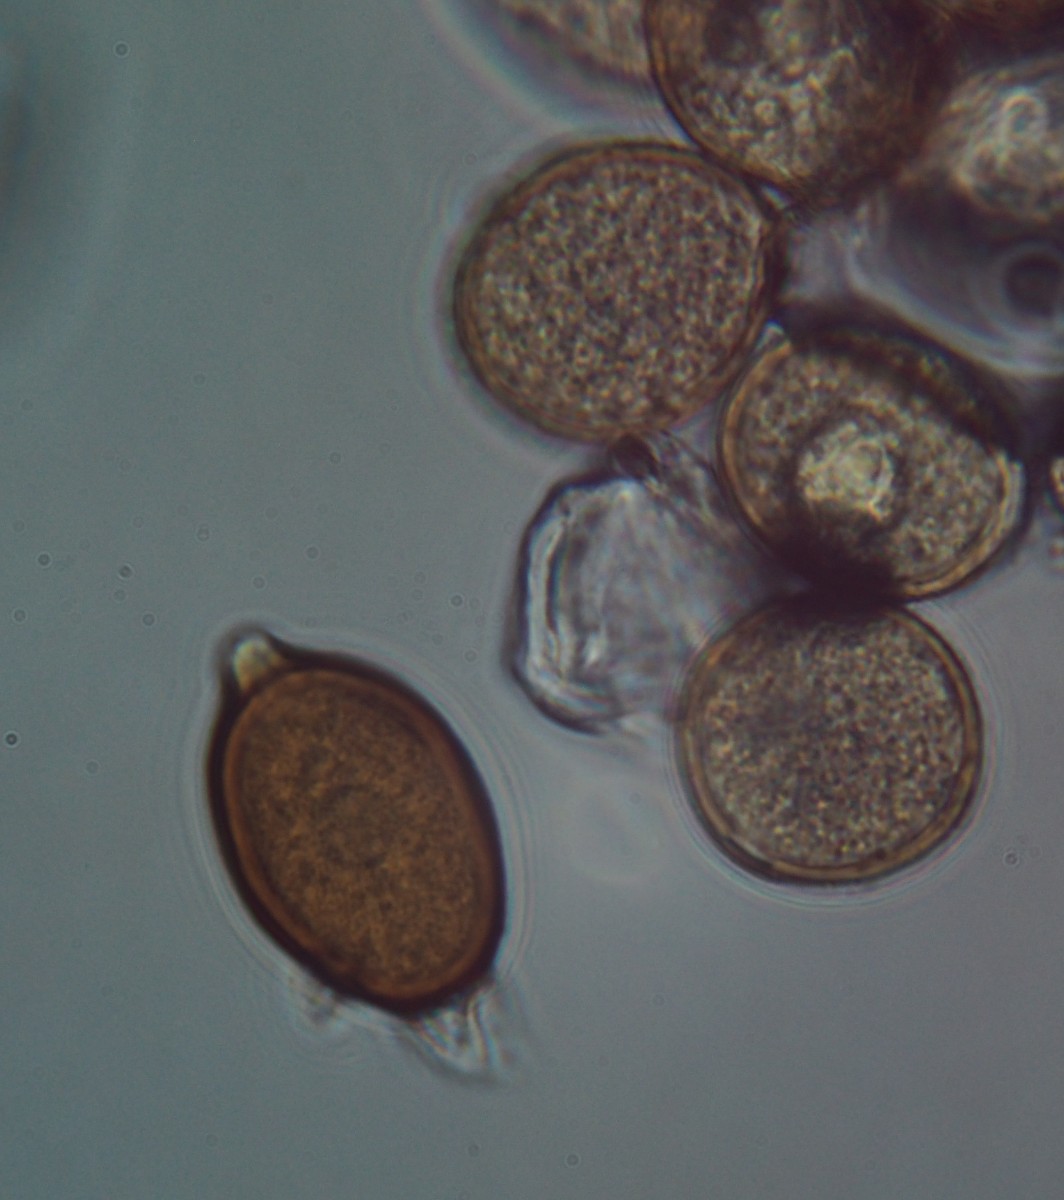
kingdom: Fungi
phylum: Basidiomycota
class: Pucciniomycetes
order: Pucciniales
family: Pucciniaceae
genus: Uromyces
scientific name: Uromyces lineolatus
